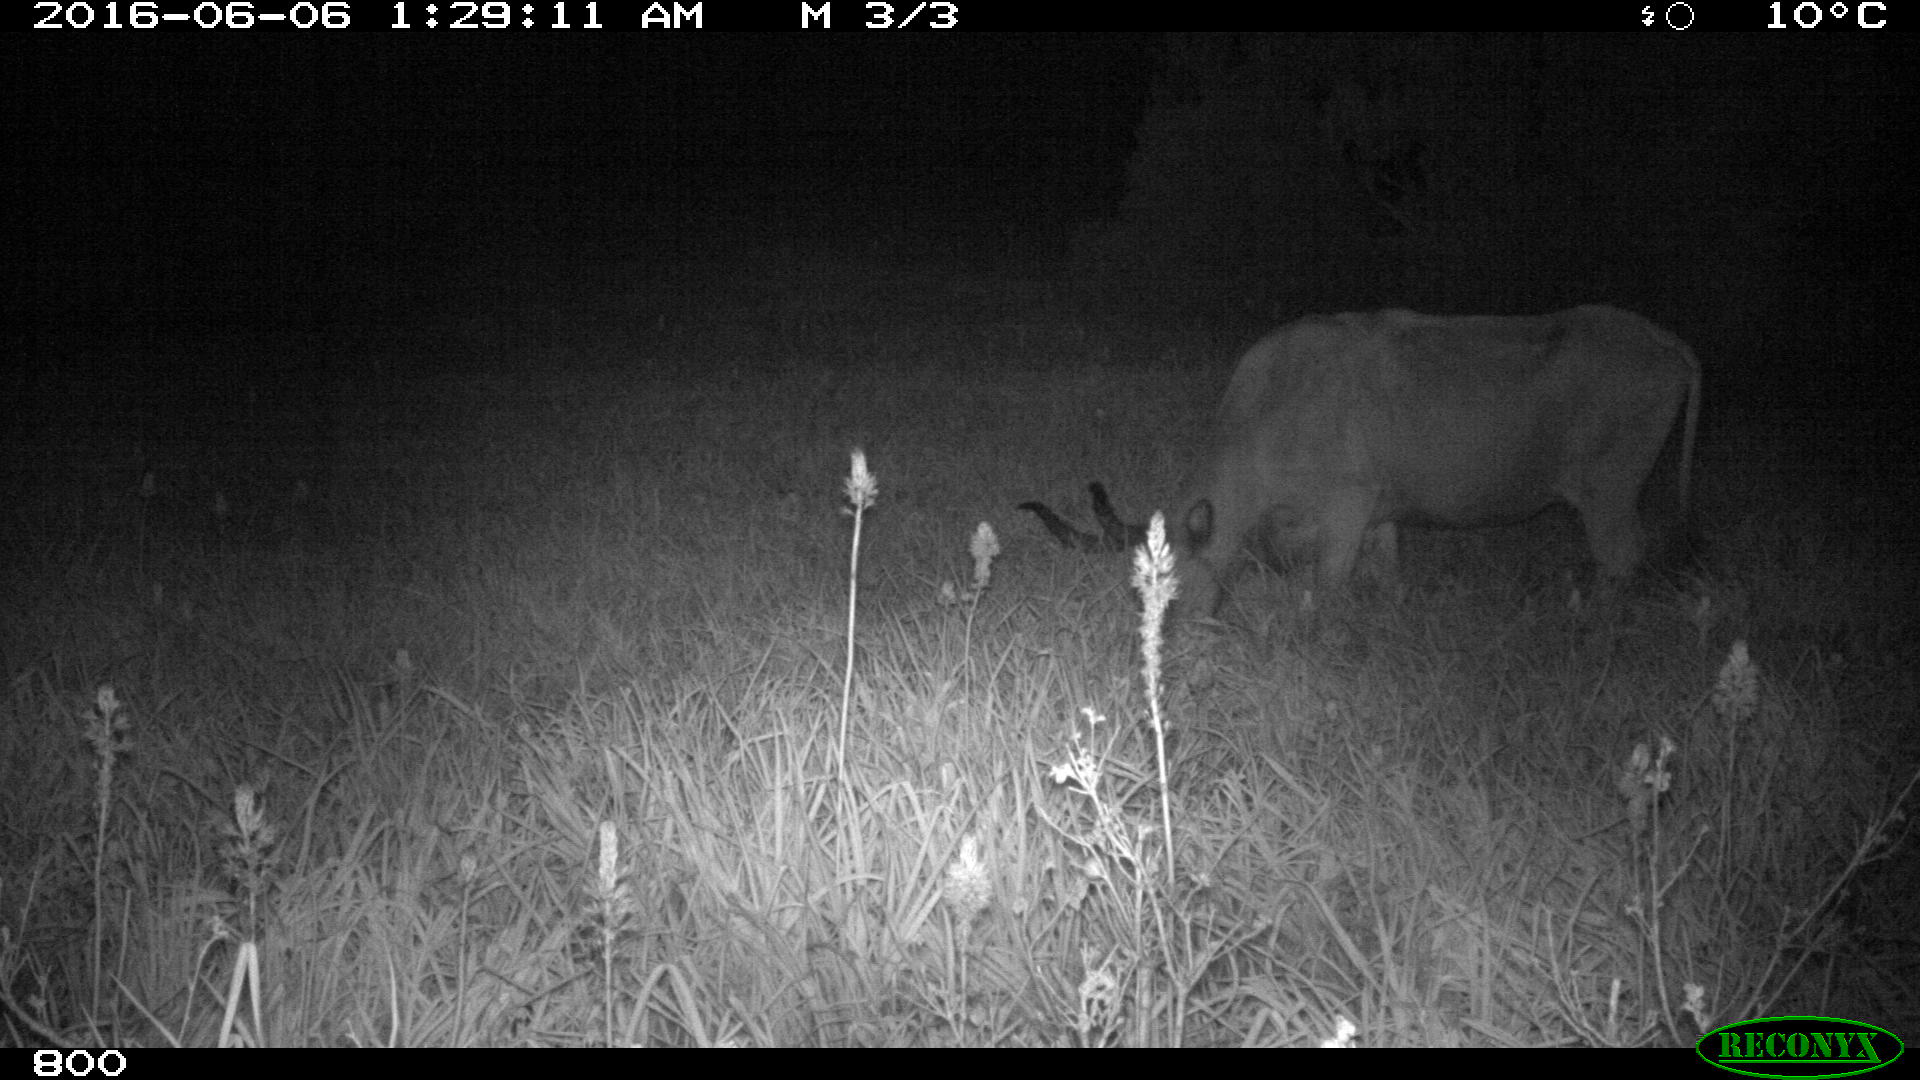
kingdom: Animalia
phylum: Chordata
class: Mammalia
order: Artiodactyla
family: Bovidae
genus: Bos
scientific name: Bos taurus
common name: Domesticated cattle
